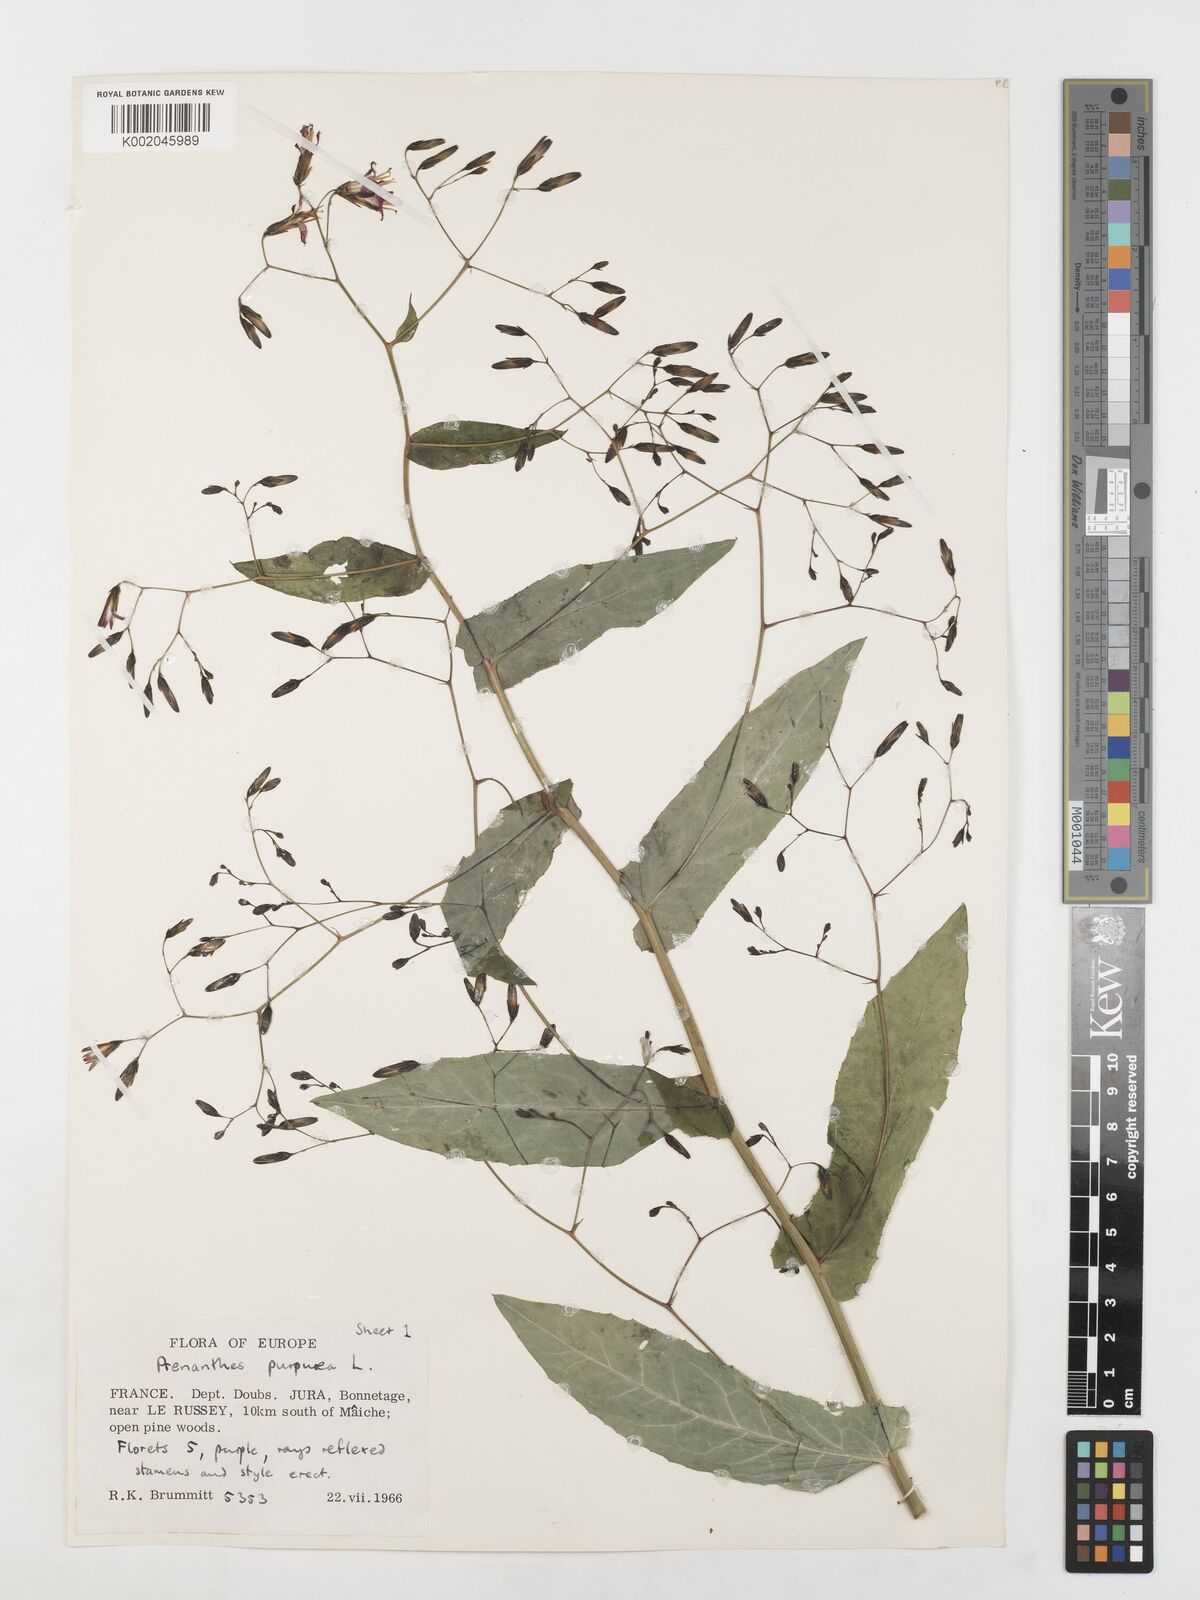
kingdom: Plantae
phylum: Tracheophyta
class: Magnoliopsida
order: Asterales
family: Asteraceae
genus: Prenanthes
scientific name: Prenanthes purpurea
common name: Purple lettuce
